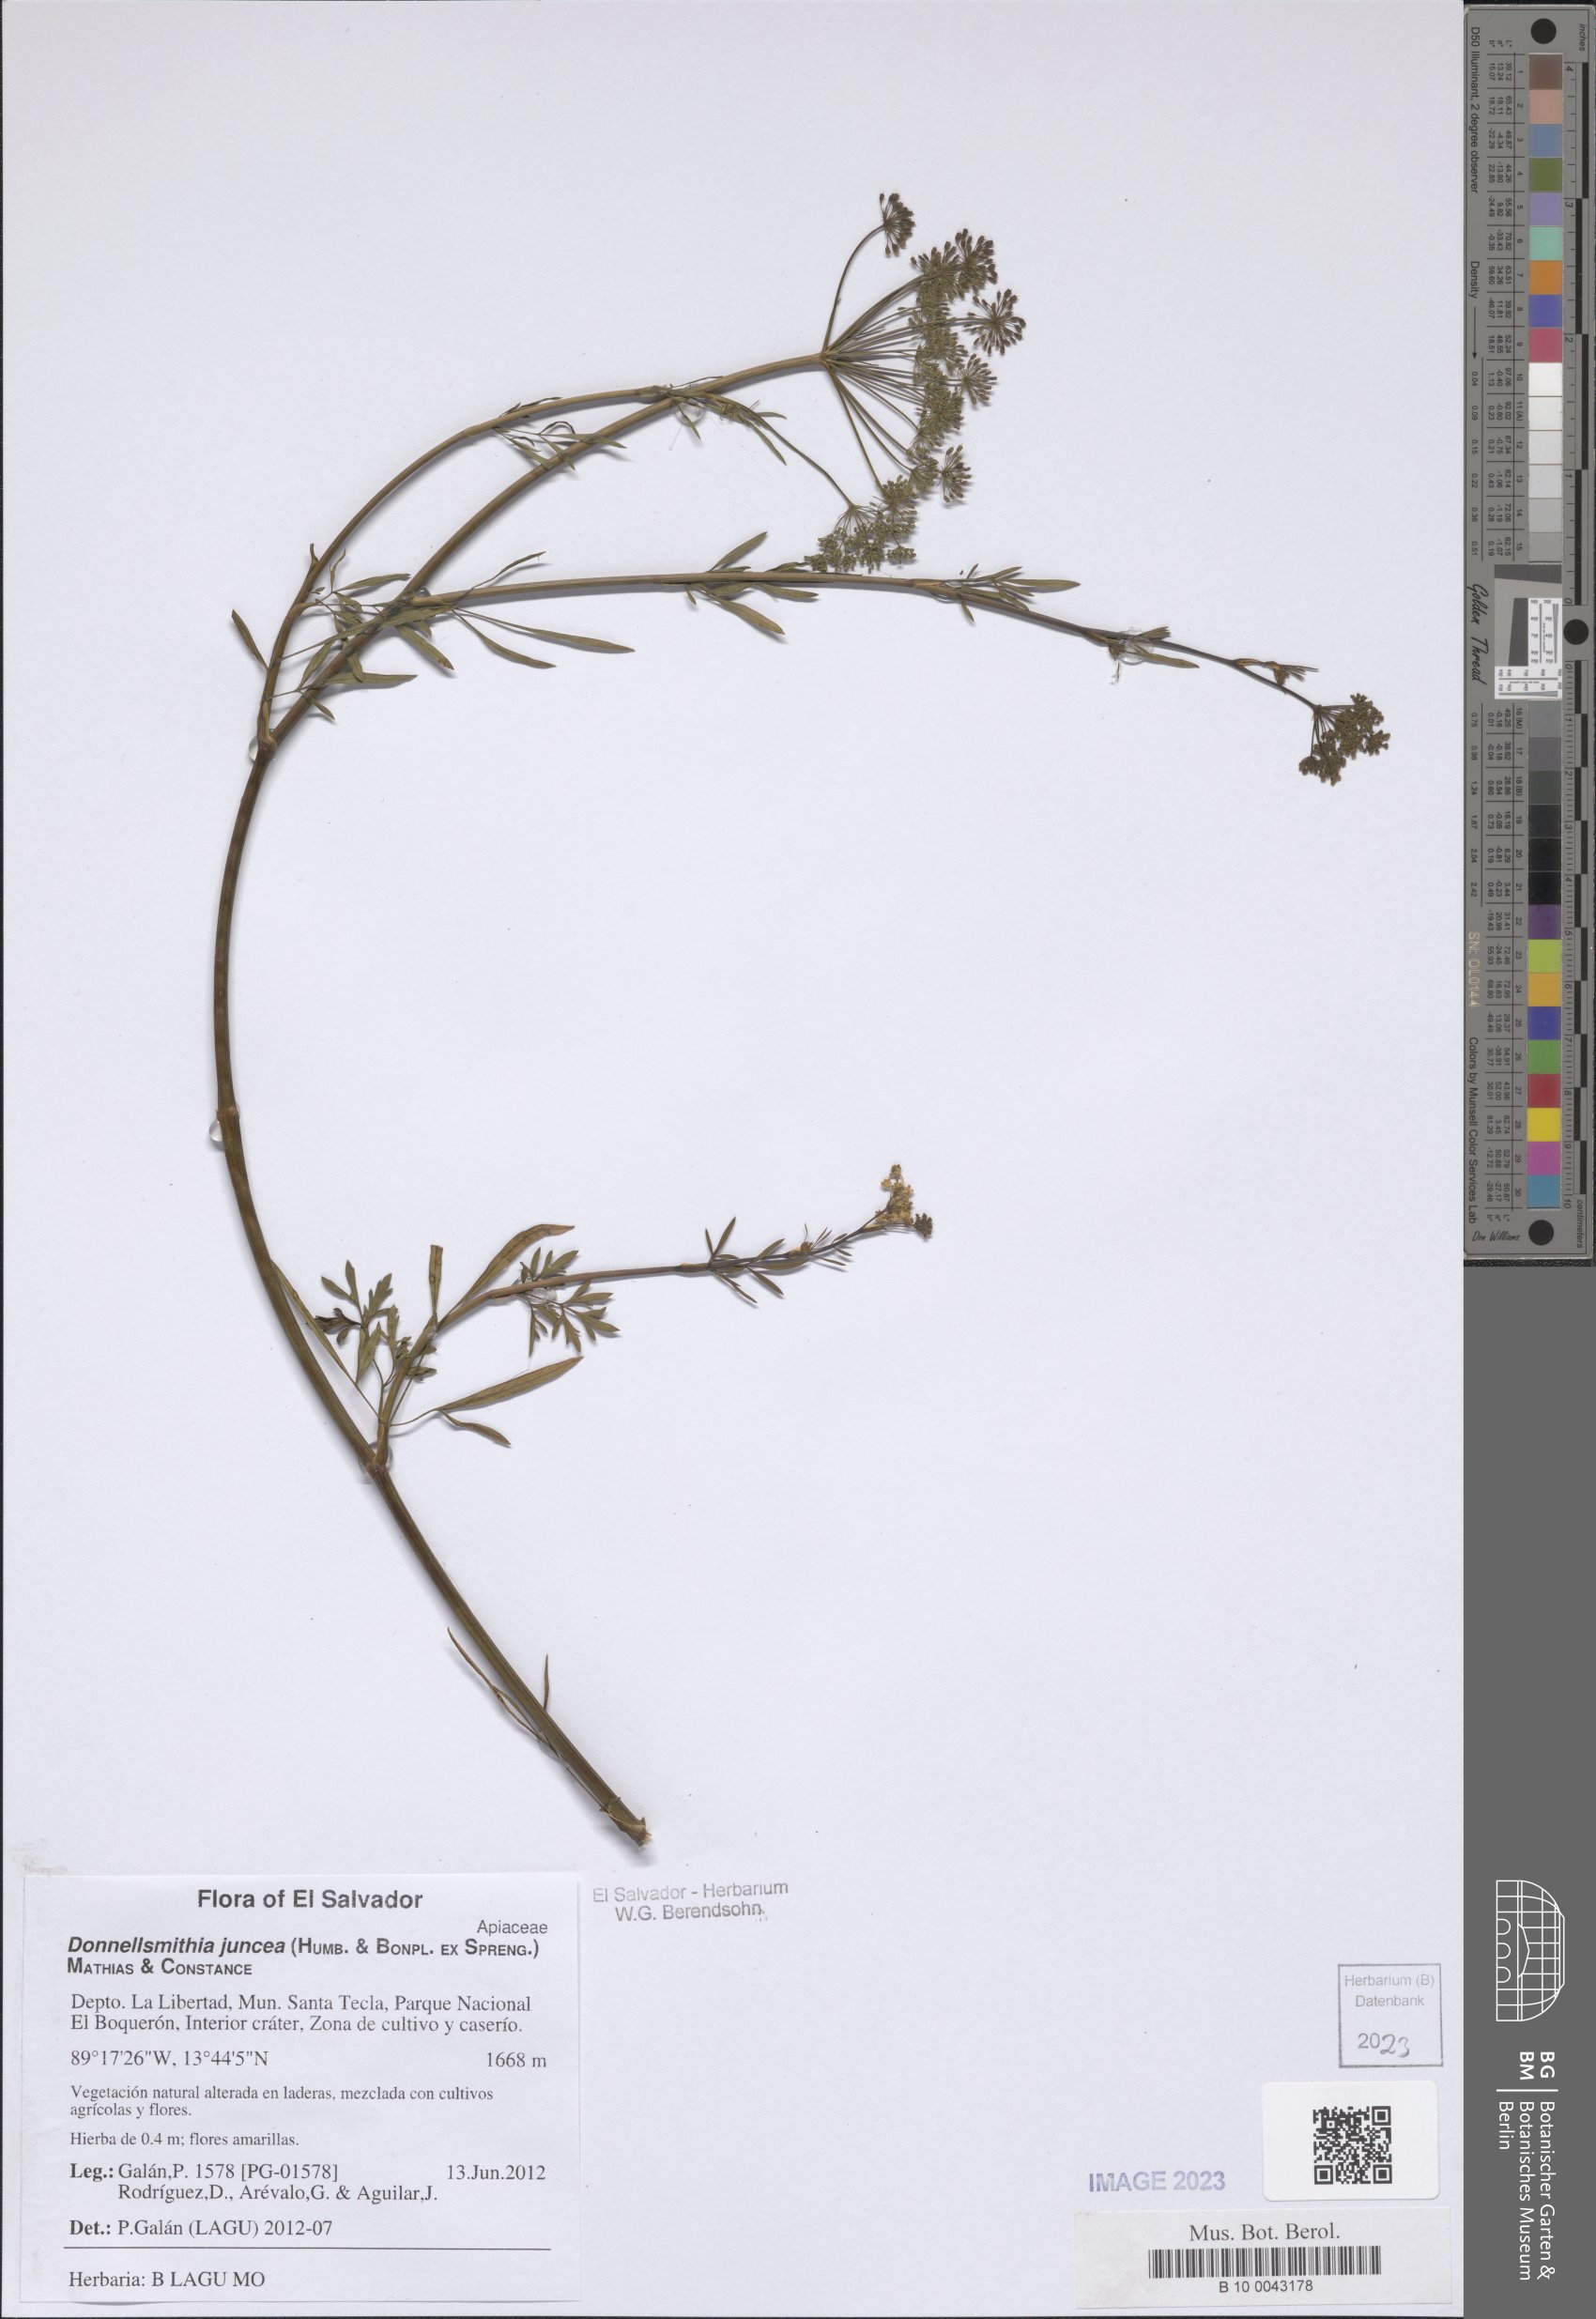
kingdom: Plantae
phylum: Tracheophyta
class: Magnoliopsida
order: Apiales
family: Apiaceae
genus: Donnellsmithia
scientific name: Donnellsmithia juncea
